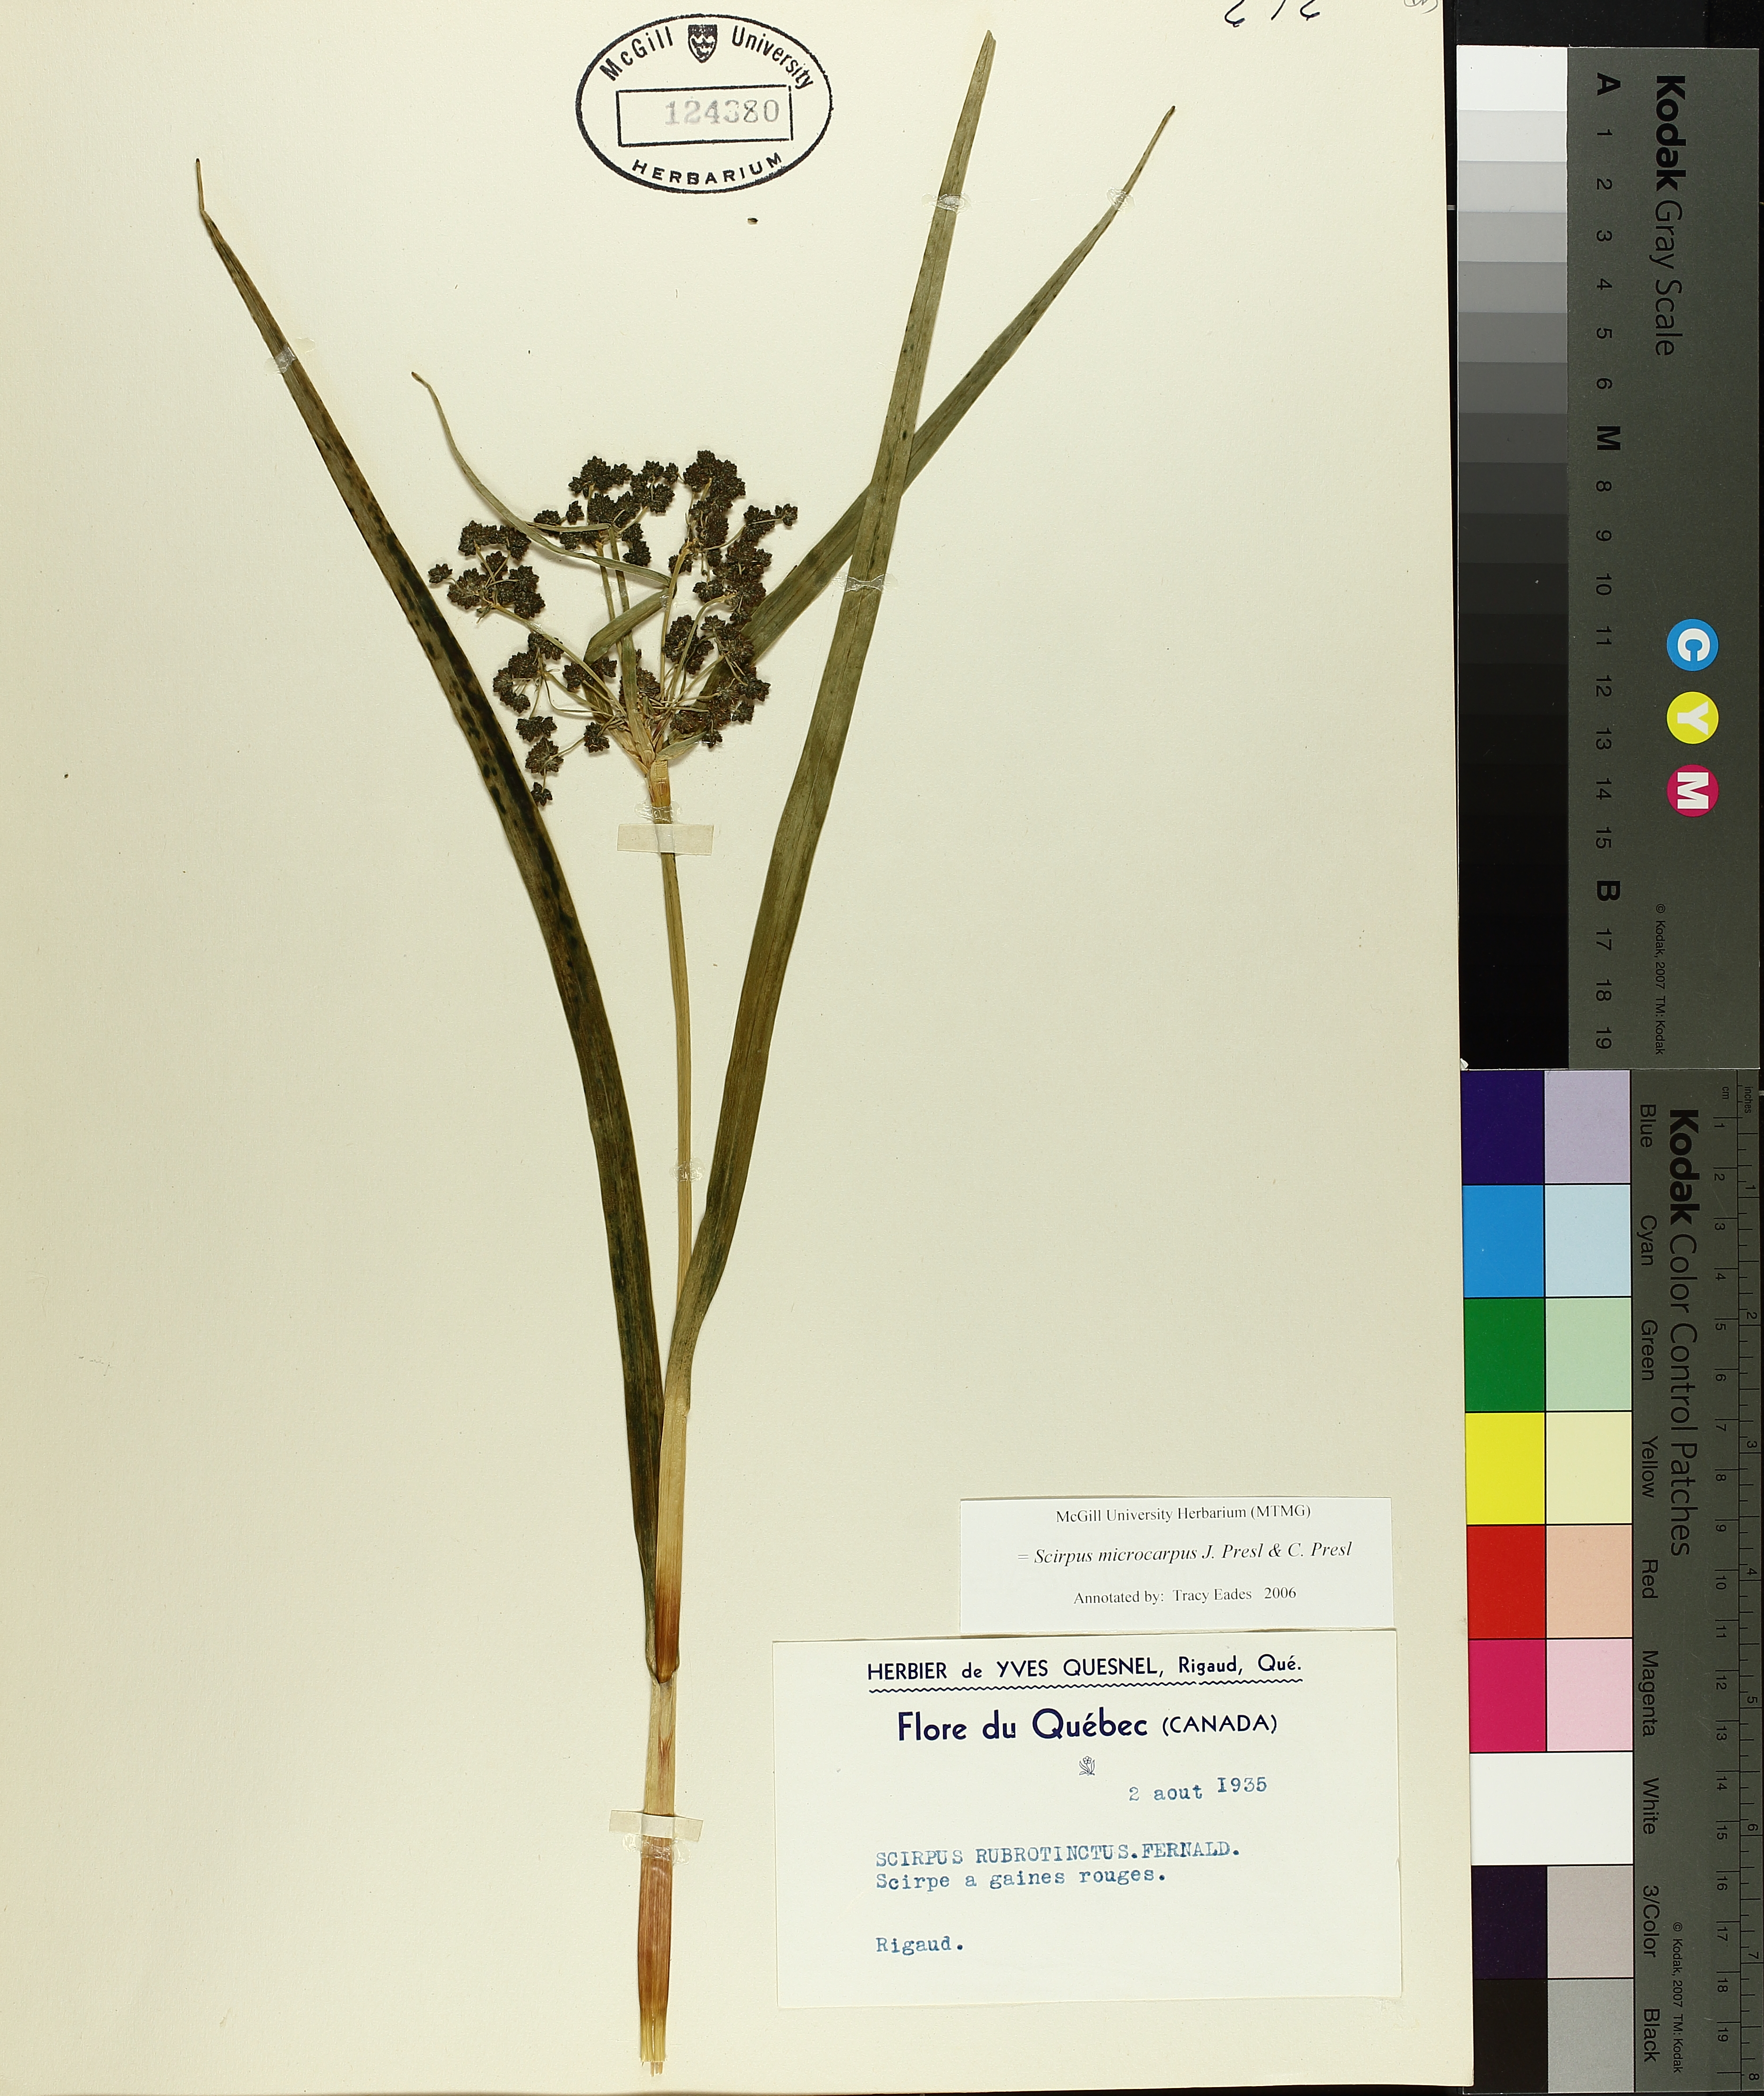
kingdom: Plantae
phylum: Tracheophyta
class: Liliopsida
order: Poales
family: Cyperaceae
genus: Scirpus
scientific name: Scirpus microcarpus
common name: Panicled bulrush
